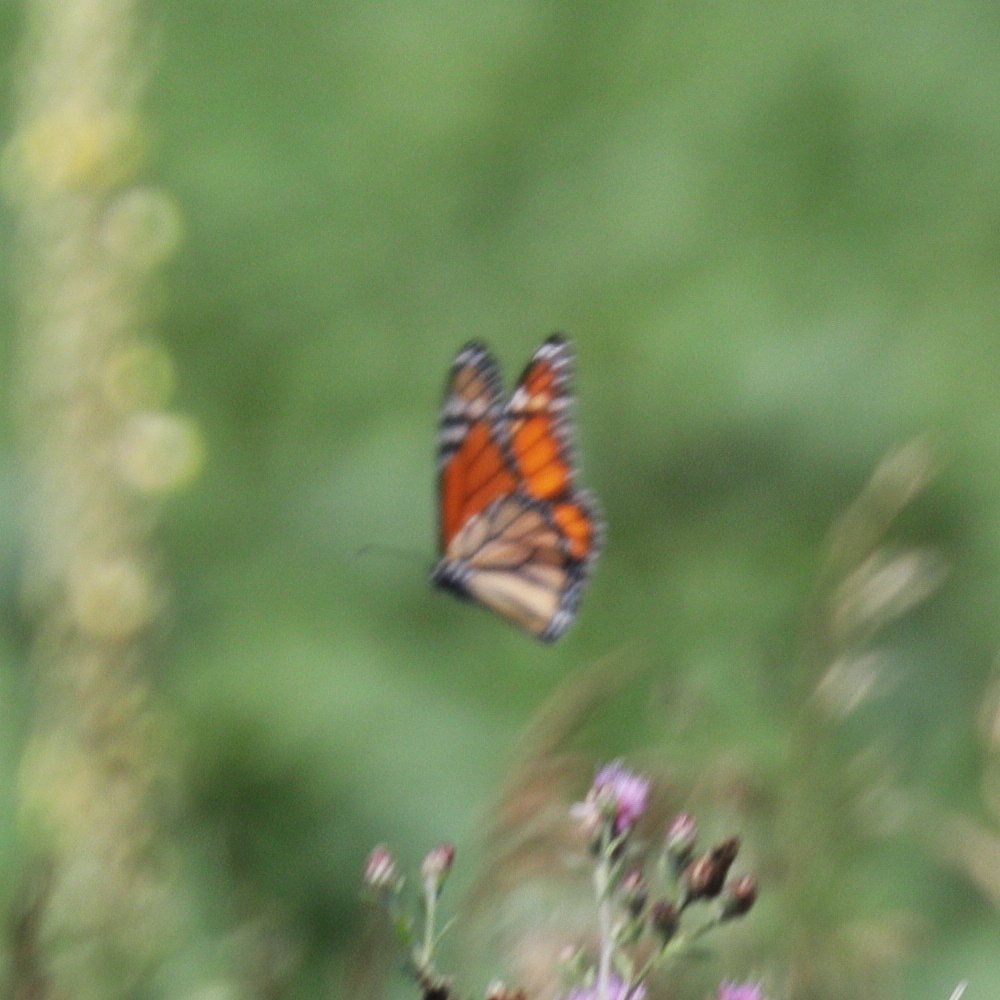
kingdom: Animalia
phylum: Arthropoda
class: Insecta
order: Lepidoptera
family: Nymphalidae
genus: Danaus
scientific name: Danaus plexippus
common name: Monarch
